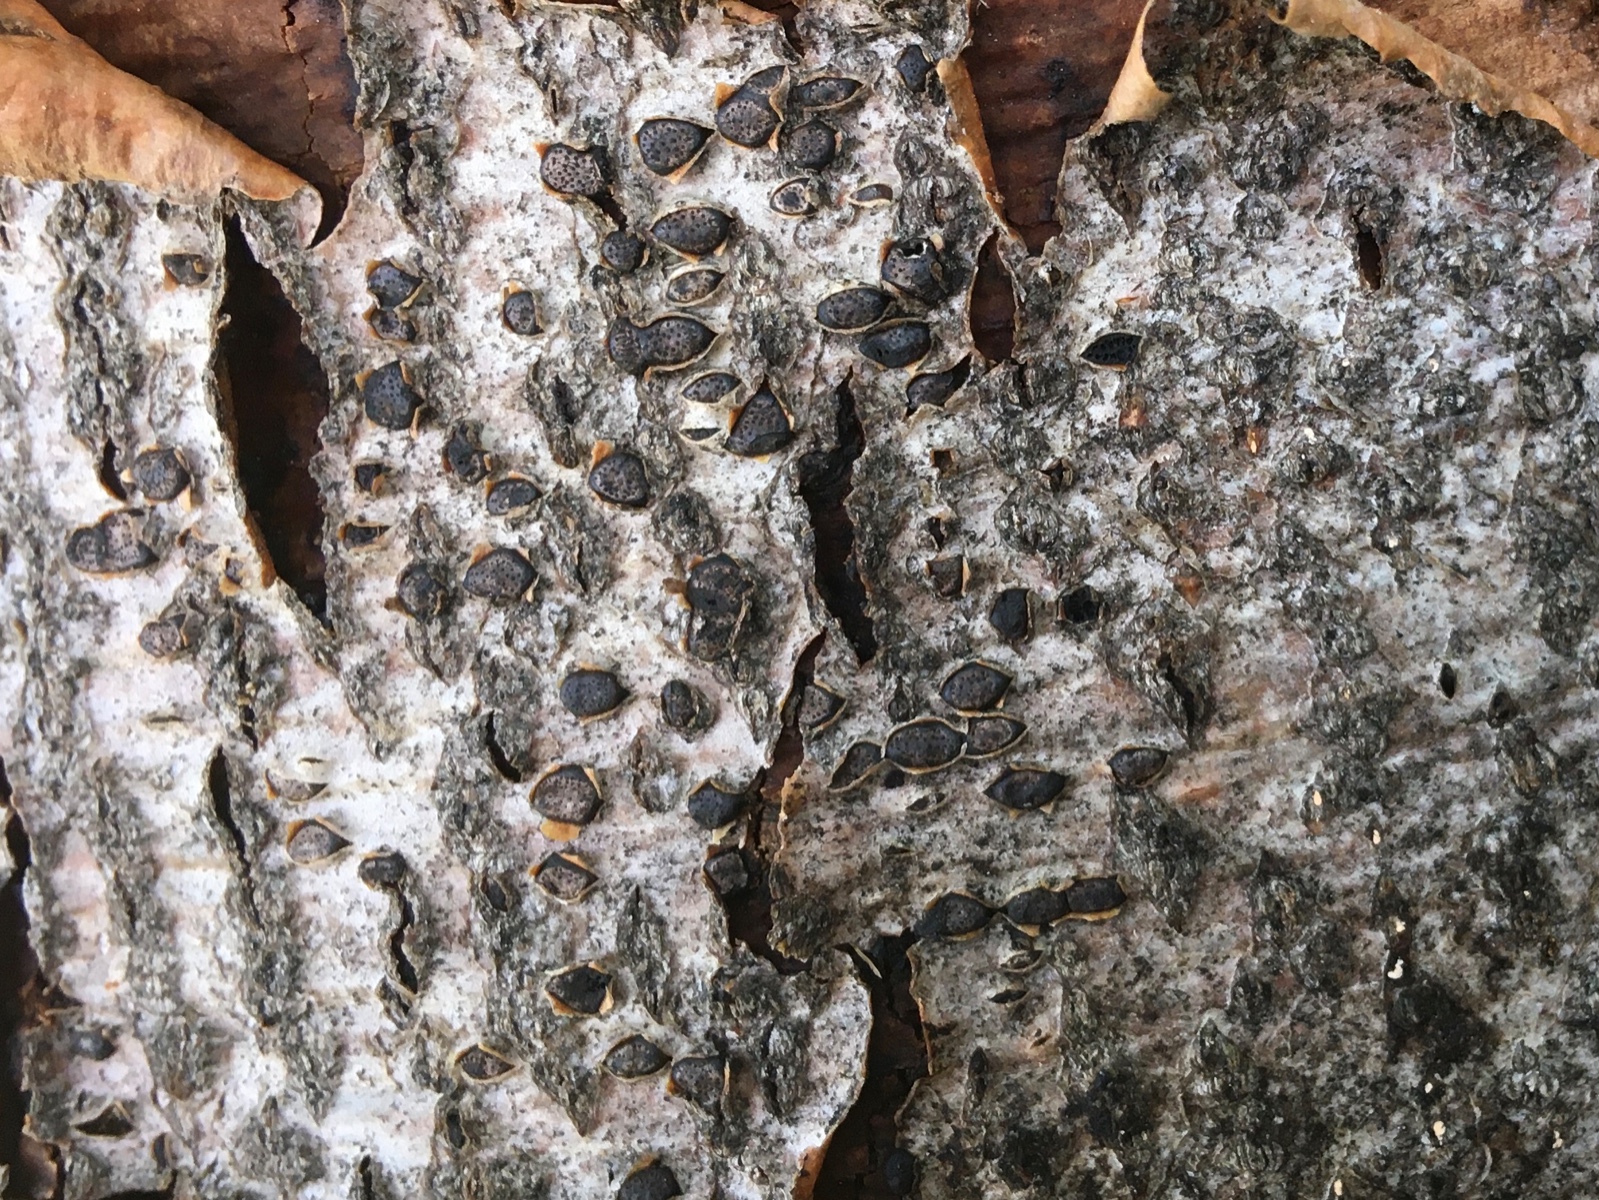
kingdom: Fungi
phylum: Ascomycota
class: Sordariomycetes
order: Xylariales
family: Diatrypaceae
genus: Diatrype
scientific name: Diatrype disciformis
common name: kant-kulskorpe
